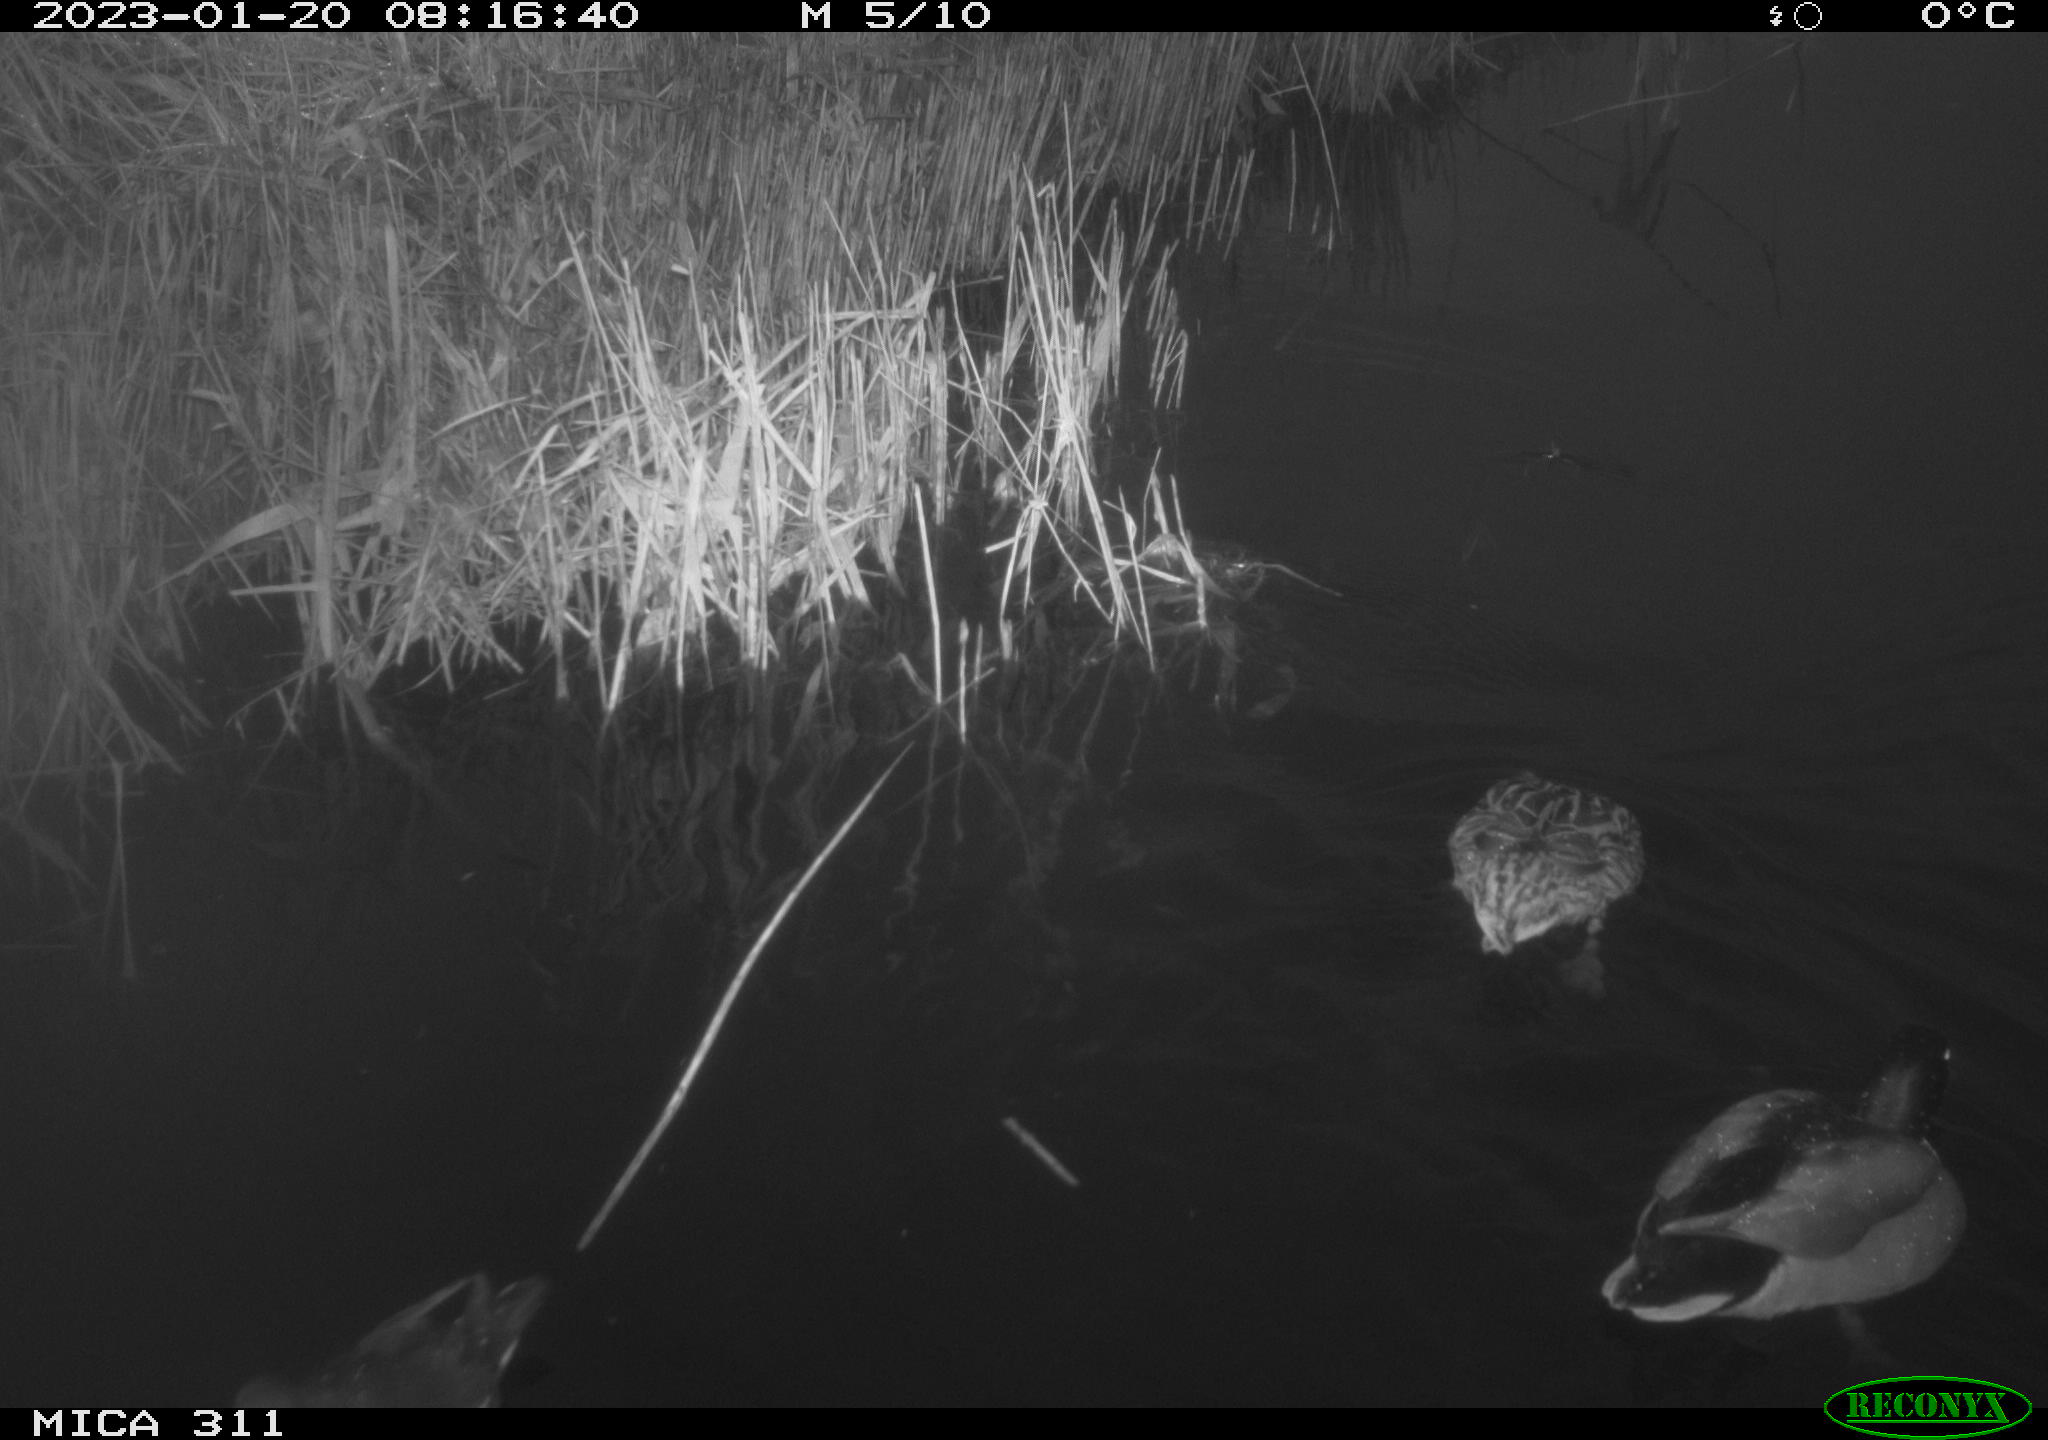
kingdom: Animalia
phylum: Chordata
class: Aves
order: Gruiformes
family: Rallidae
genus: Gallinula
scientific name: Gallinula chloropus
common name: Common moorhen
